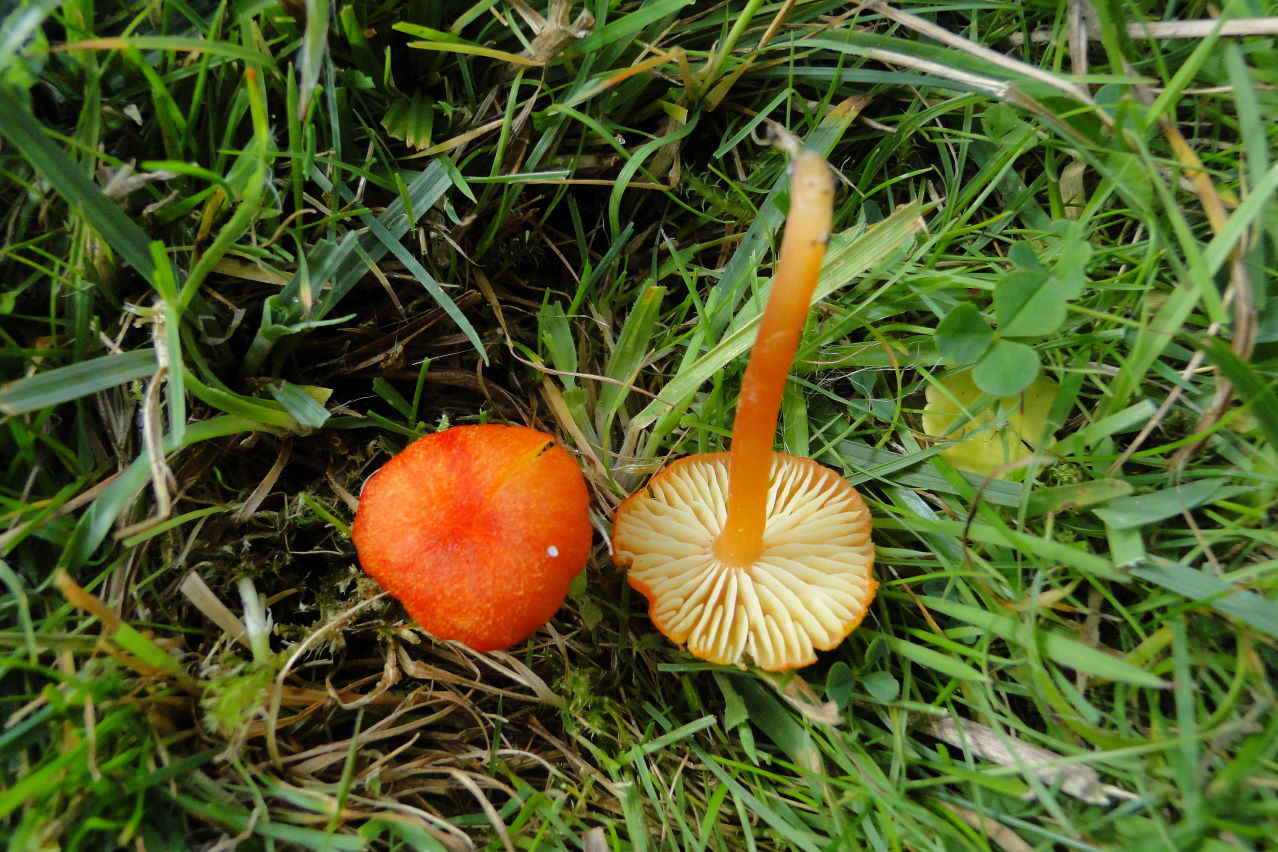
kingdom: Fungi
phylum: Basidiomycota
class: Agaricomycetes
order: Agaricales
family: Hygrophoraceae
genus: Hygrocybe
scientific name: Hygrocybe helobia
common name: hvidløgs-vokshat
